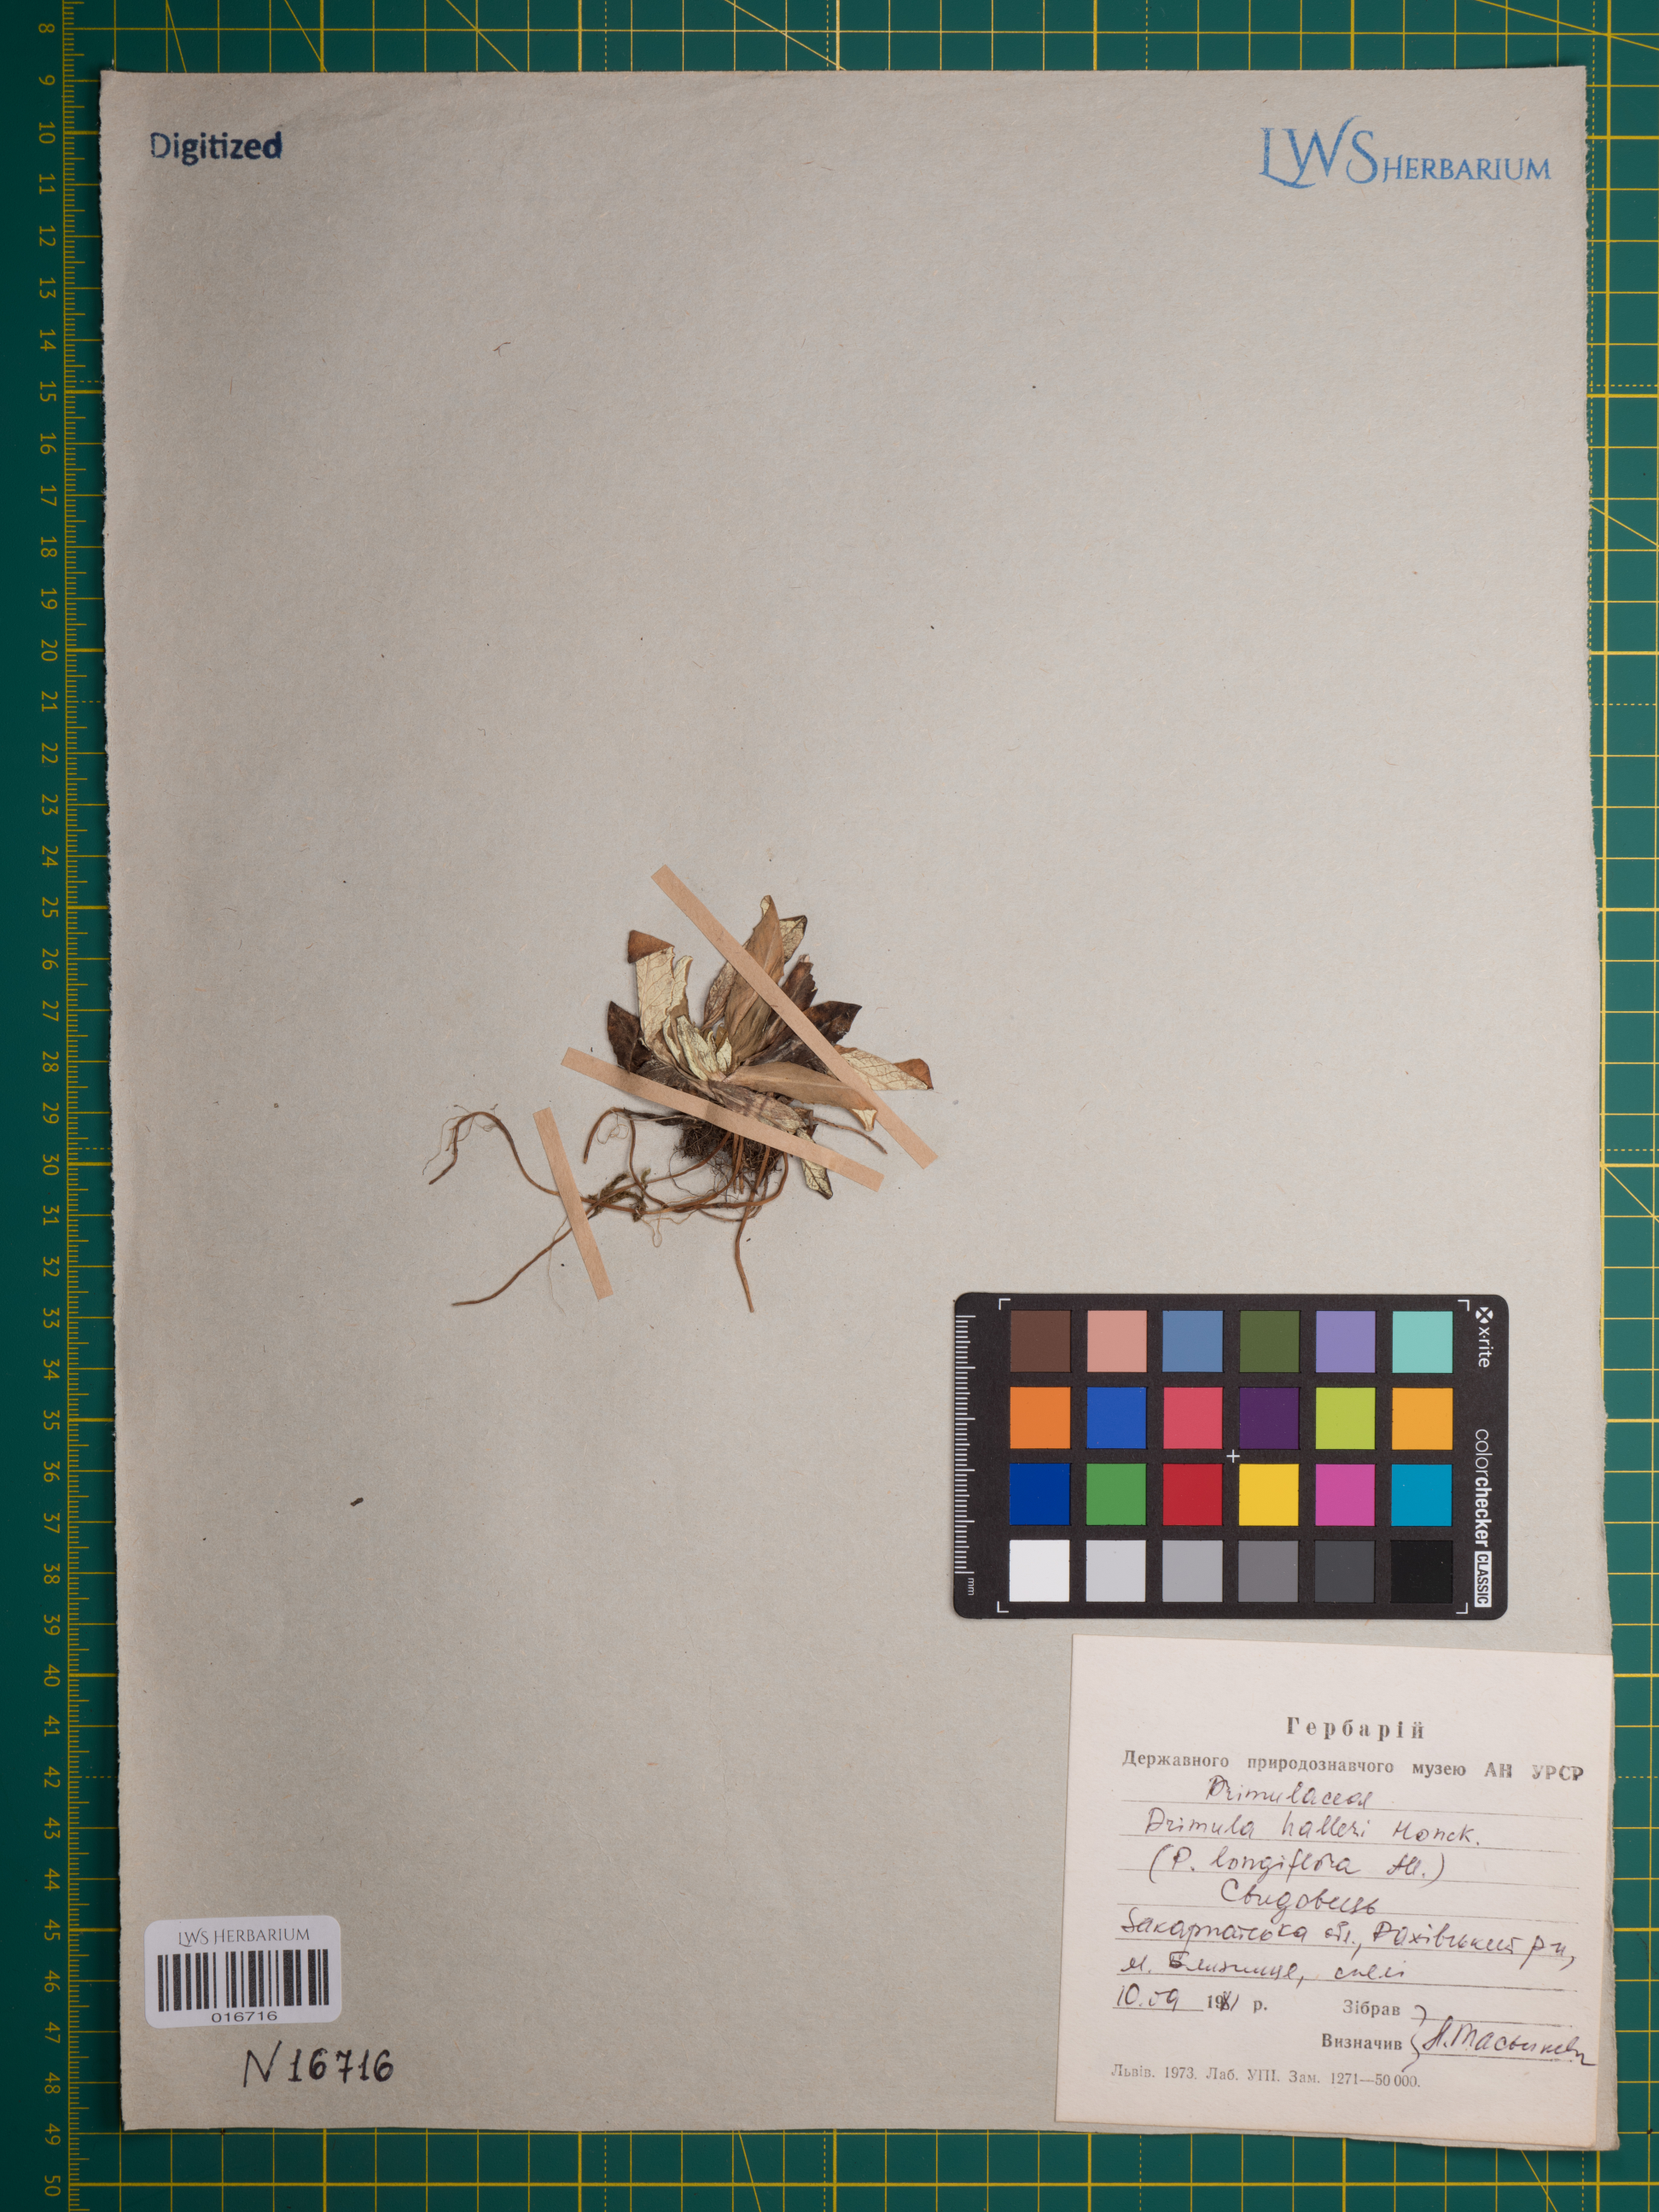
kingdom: Plantae
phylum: Tracheophyta
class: Magnoliopsida
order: Ericales
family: Primulaceae
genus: Primula
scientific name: Primula halleri
